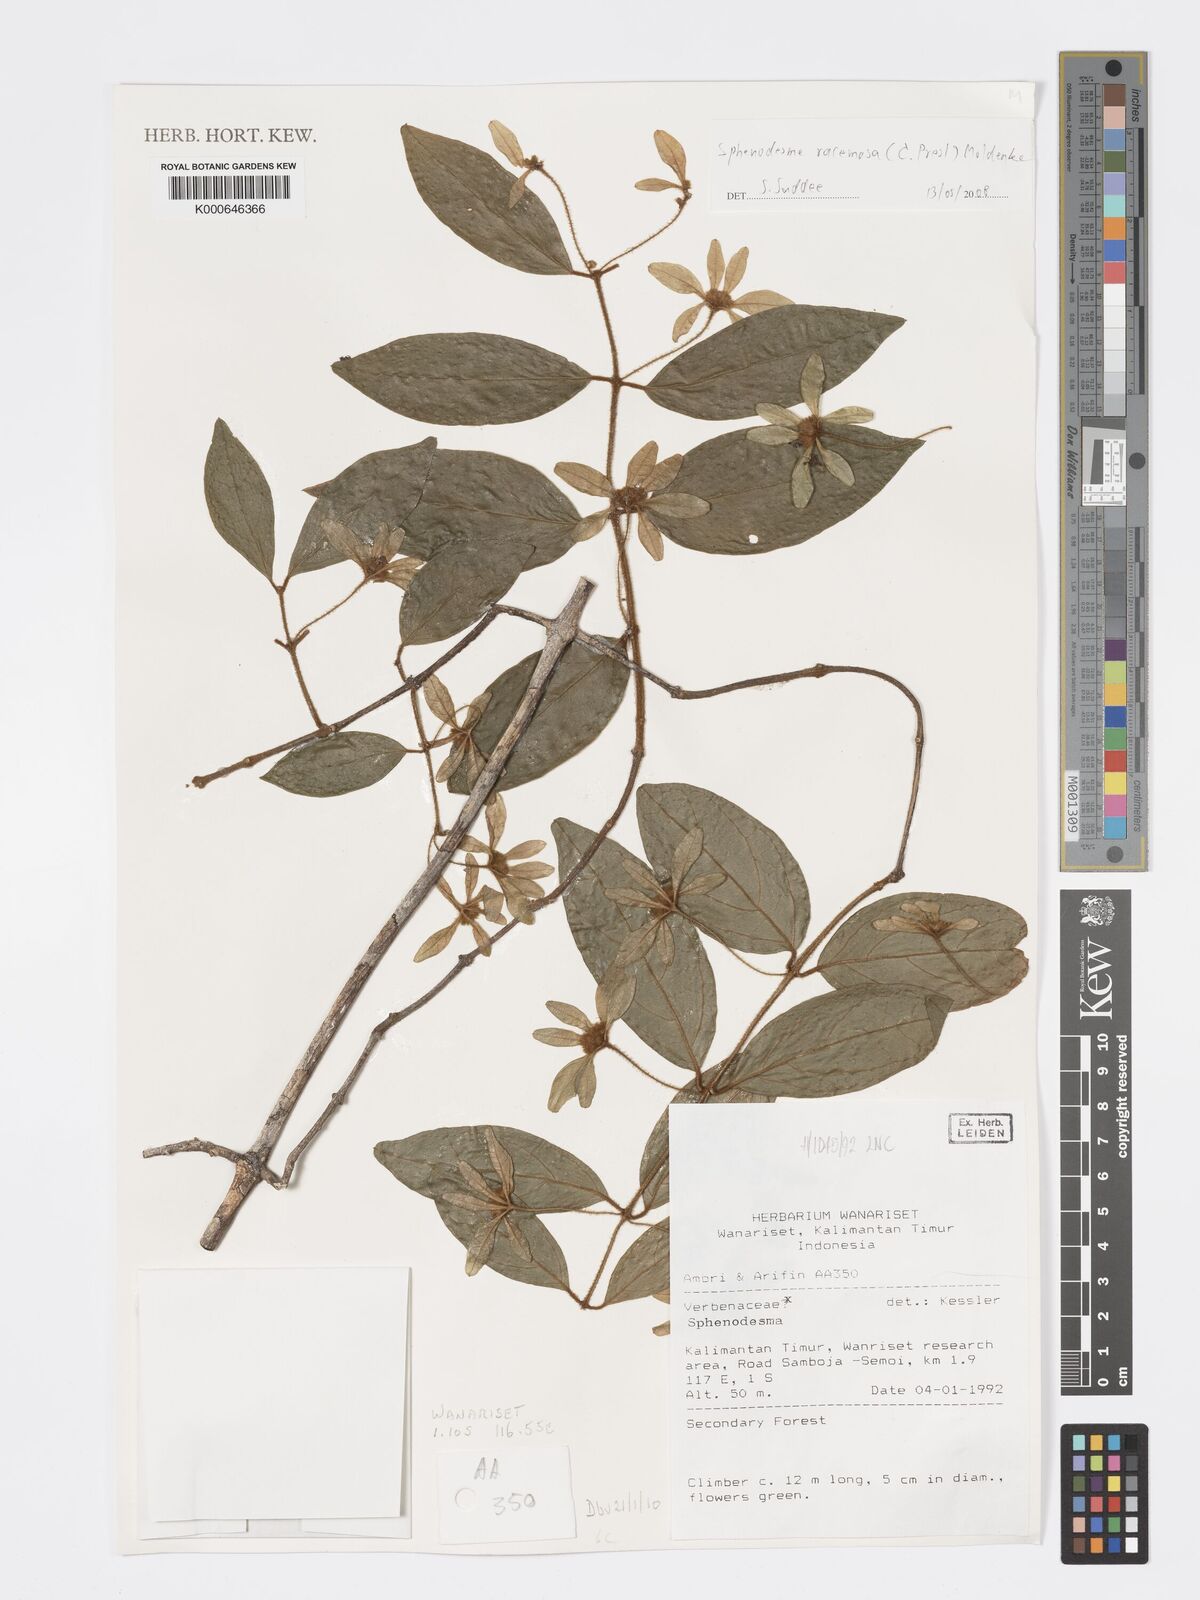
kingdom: Plantae
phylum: Tracheophyta
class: Magnoliopsida
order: Lamiales
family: Lamiaceae
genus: Sphenodesme
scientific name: Sphenodesme racemosa
